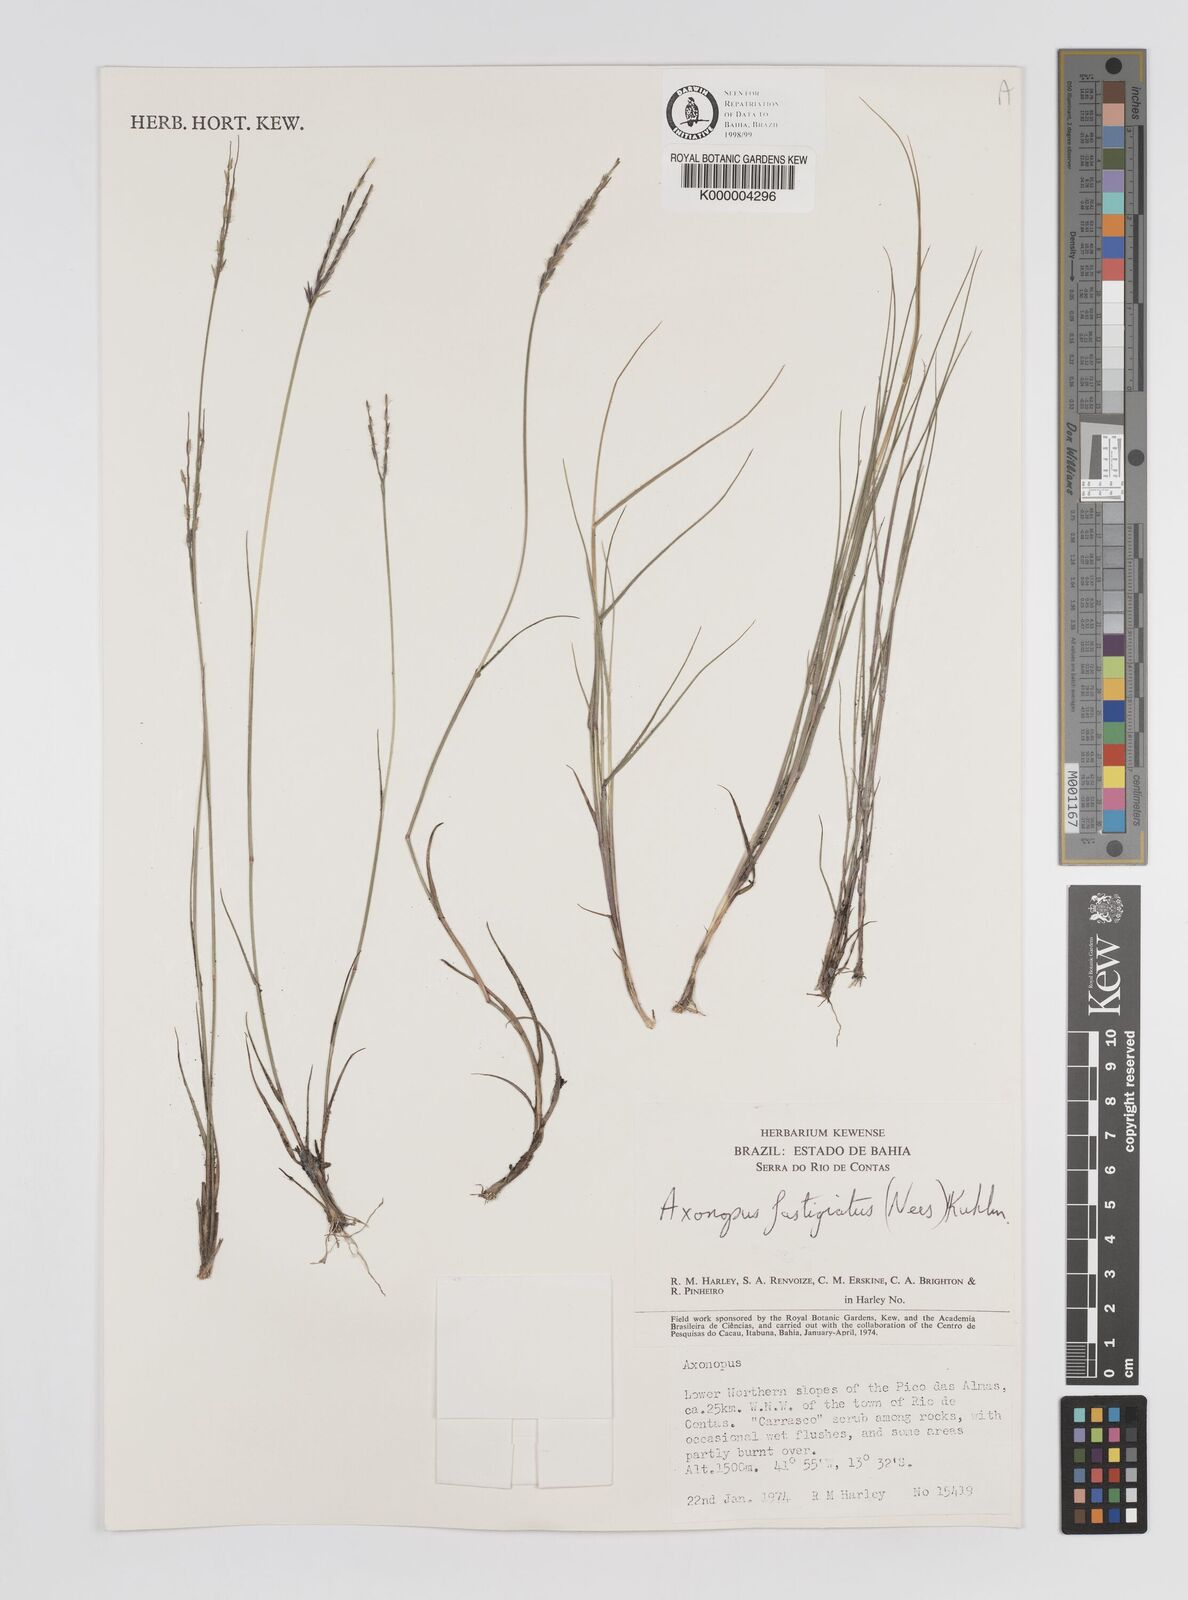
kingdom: Plantae
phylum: Tracheophyta
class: Liliopsida
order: Poales
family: Poaceae
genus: Axonopus
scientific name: Axonopus
